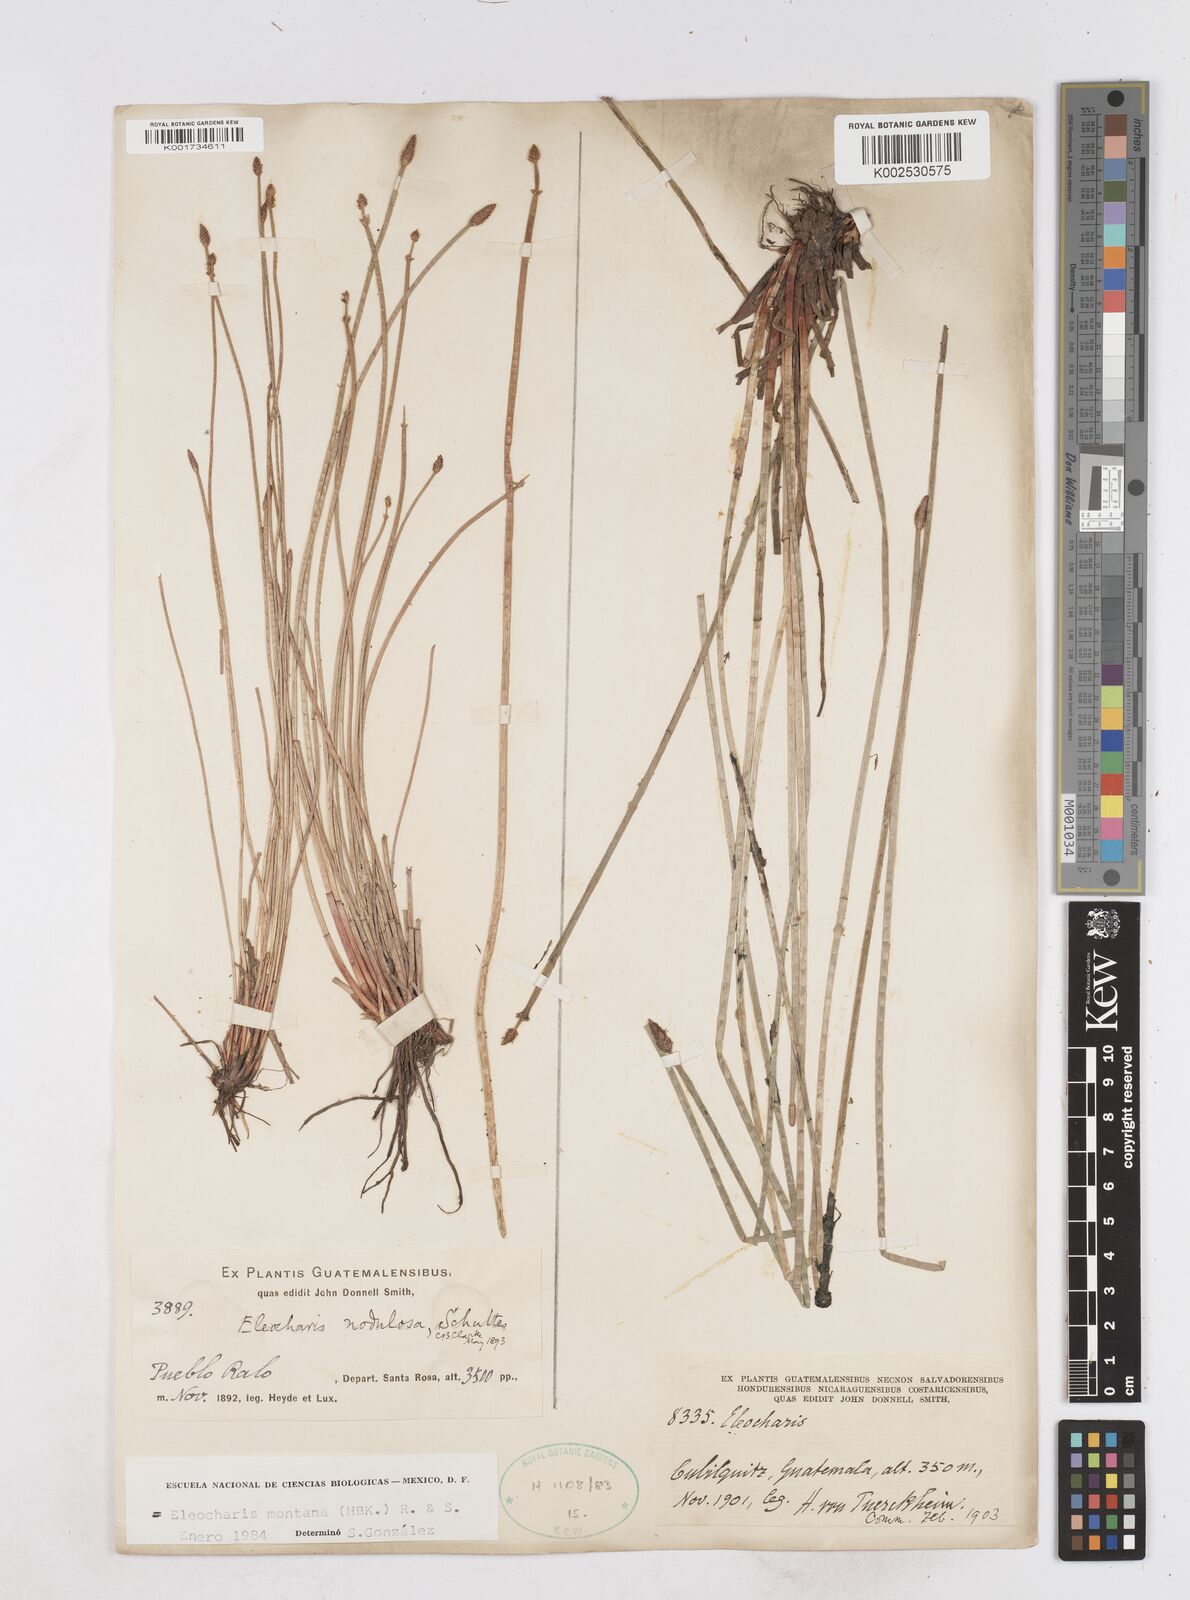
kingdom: Plantae
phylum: Tracheophyta
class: Liliopsida
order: Poales
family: Cyperaceae
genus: Eleocharis
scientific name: Eleocharis montana
